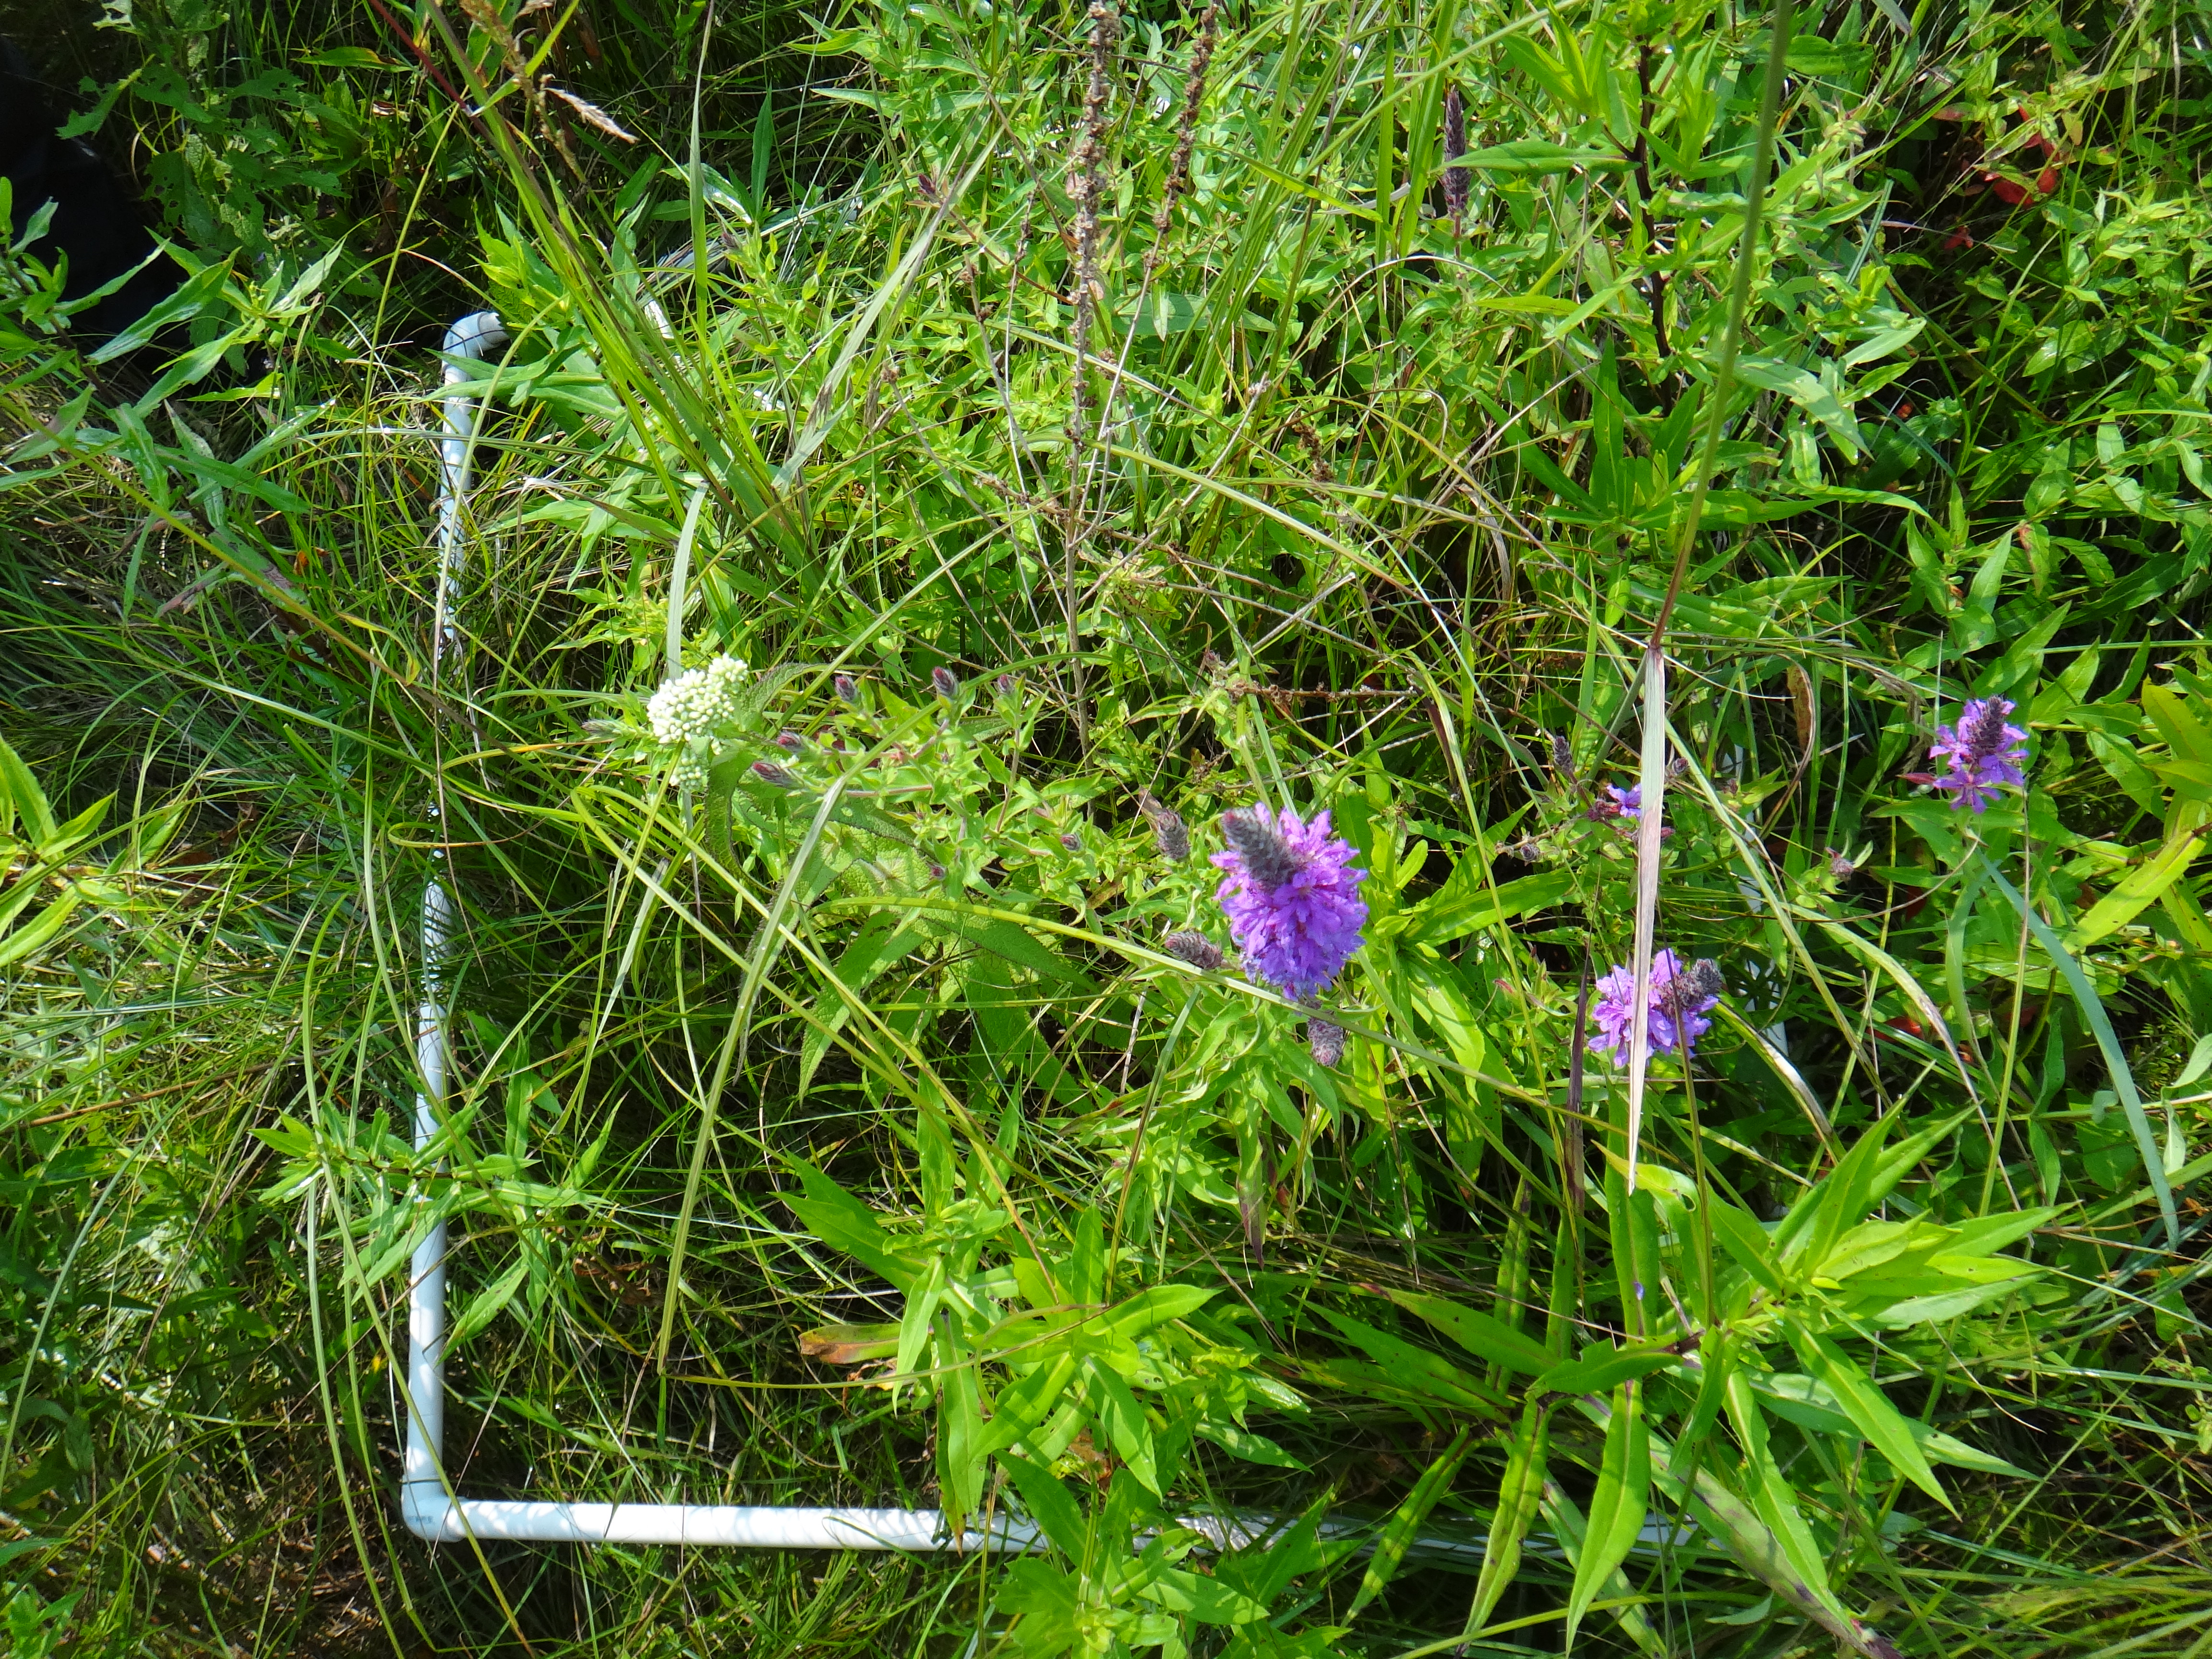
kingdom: Plantae
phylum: Tracheophyta
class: Magnoliopsida
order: Asterales
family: Asteraceae
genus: Solidago
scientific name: Solidago canadensis
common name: Canada goldenrod
